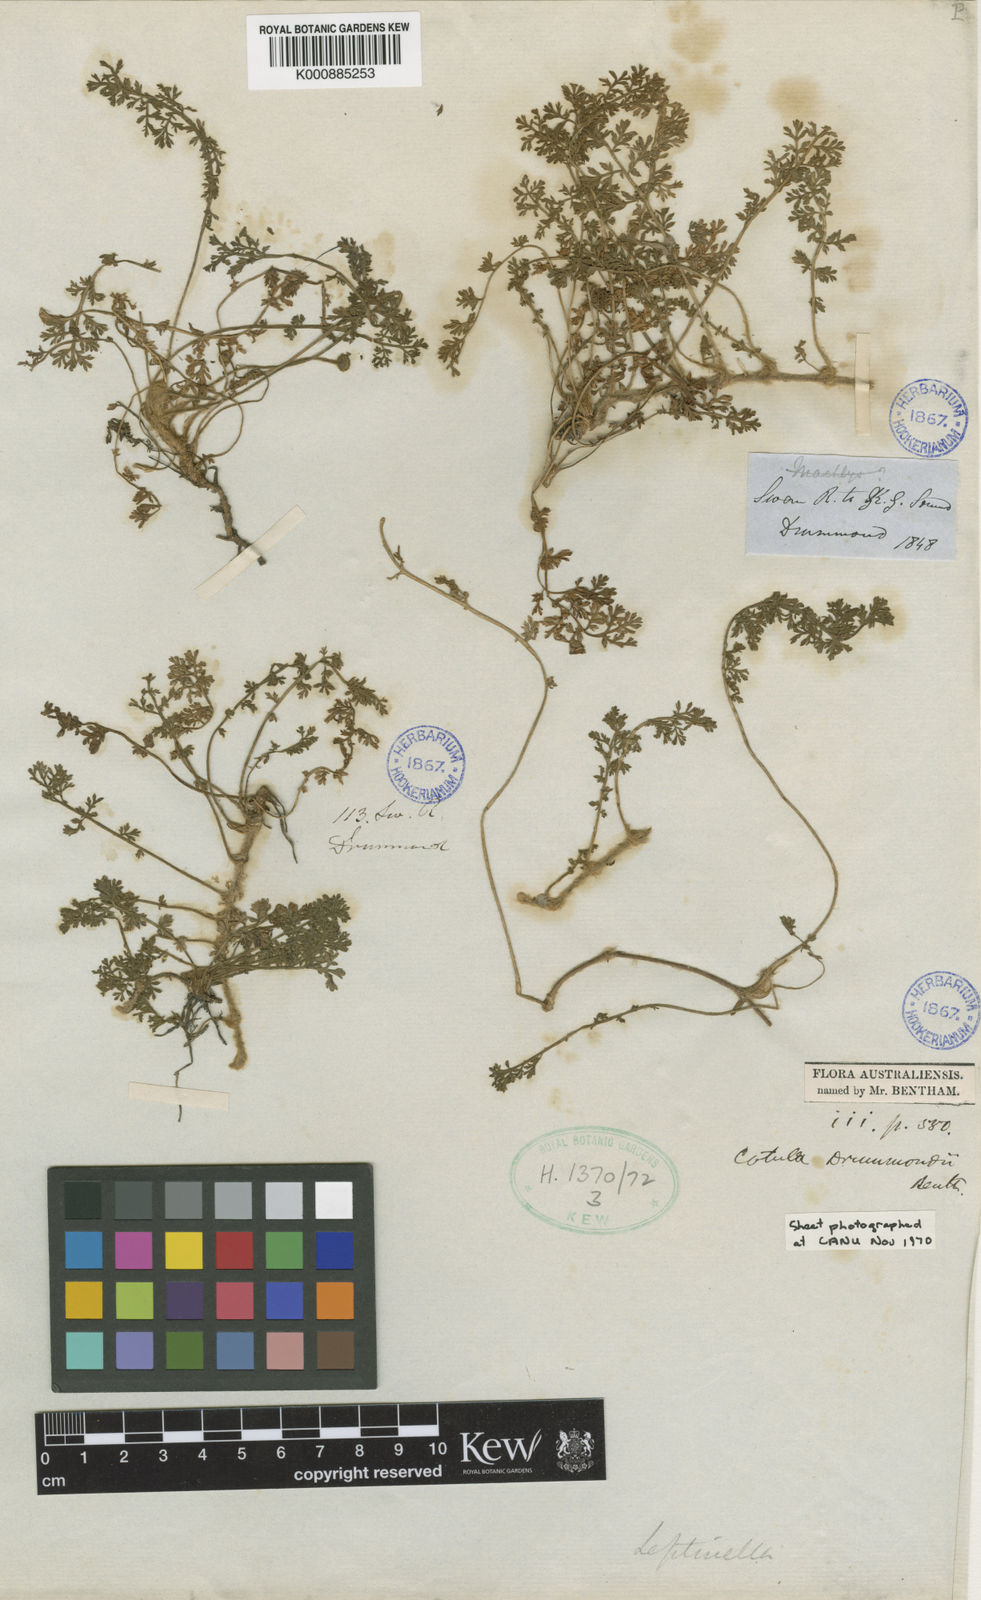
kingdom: Plantae
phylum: Tracheophyta
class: Magnoliopsida
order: Asterales
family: Asteraceae
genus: Leptinella
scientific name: Leptinella
